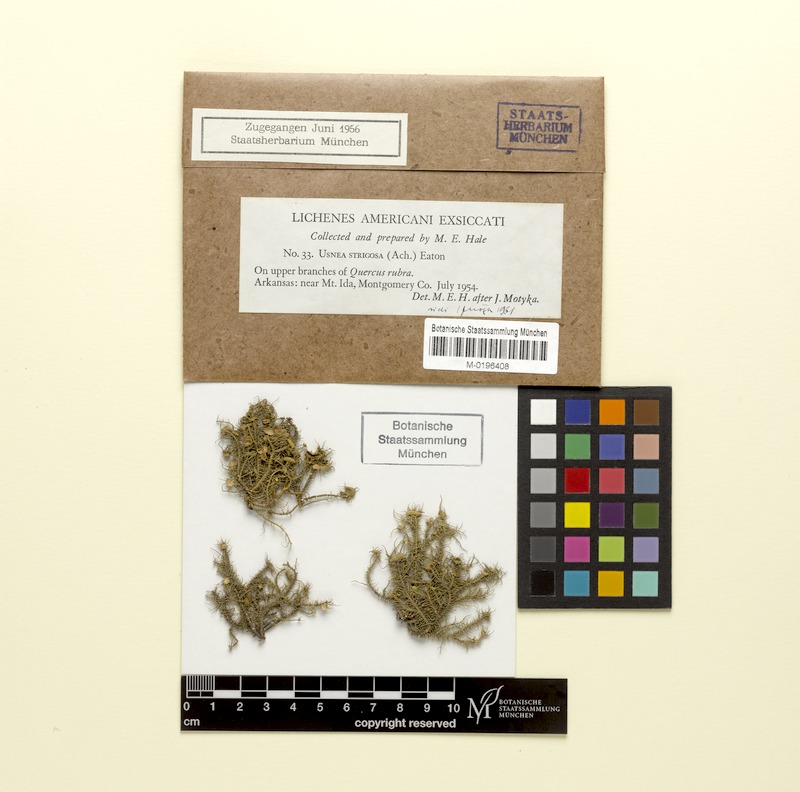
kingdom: Fungi
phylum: Ascomycota
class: Lecanoromycetes
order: Lecanorales
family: Parmeliaceae
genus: Usnea
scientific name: Usnea strigosa
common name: Bushy beard lichen
